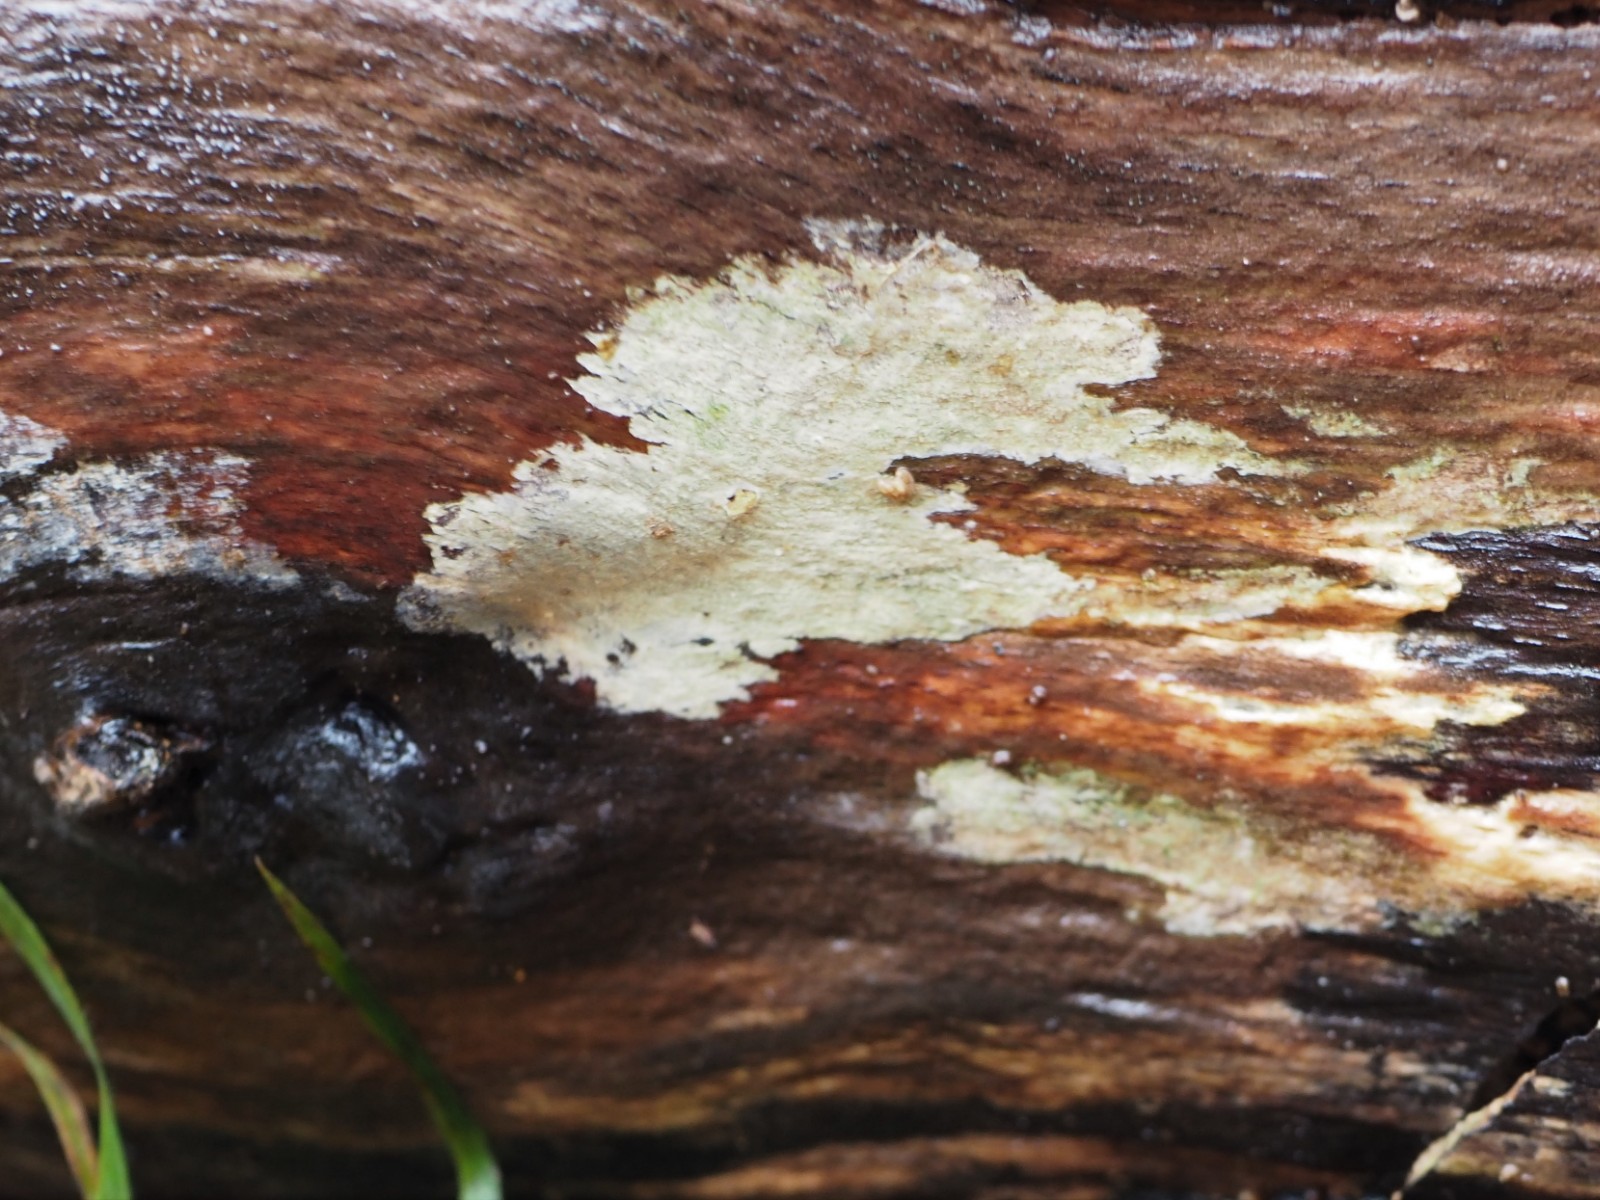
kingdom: Fungi
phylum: Basidiomycota
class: Agaricomycetes
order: Trechisporales
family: Hydnodontaceae
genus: Brevicellicium
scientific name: Brevicellicium olivascens
